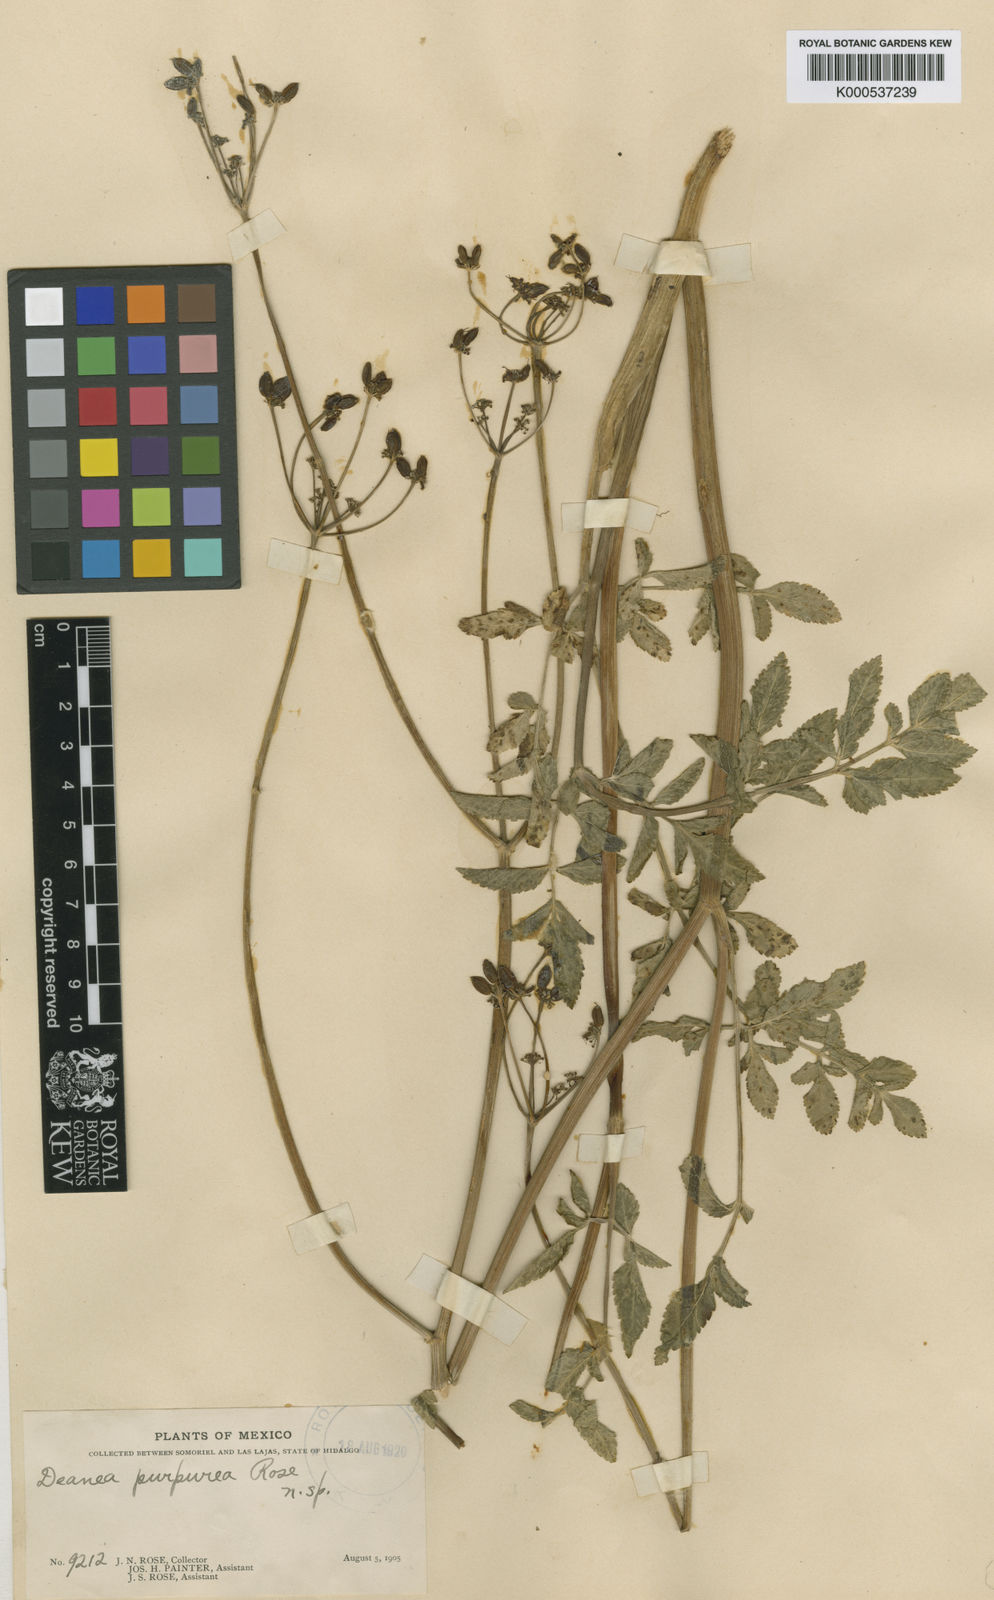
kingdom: Plantae
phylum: Tracheophyta
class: Magnoliopsida
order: Apiales
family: Apiaceae
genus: Rhodosciadium
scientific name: Rhodosciadium purpureum
